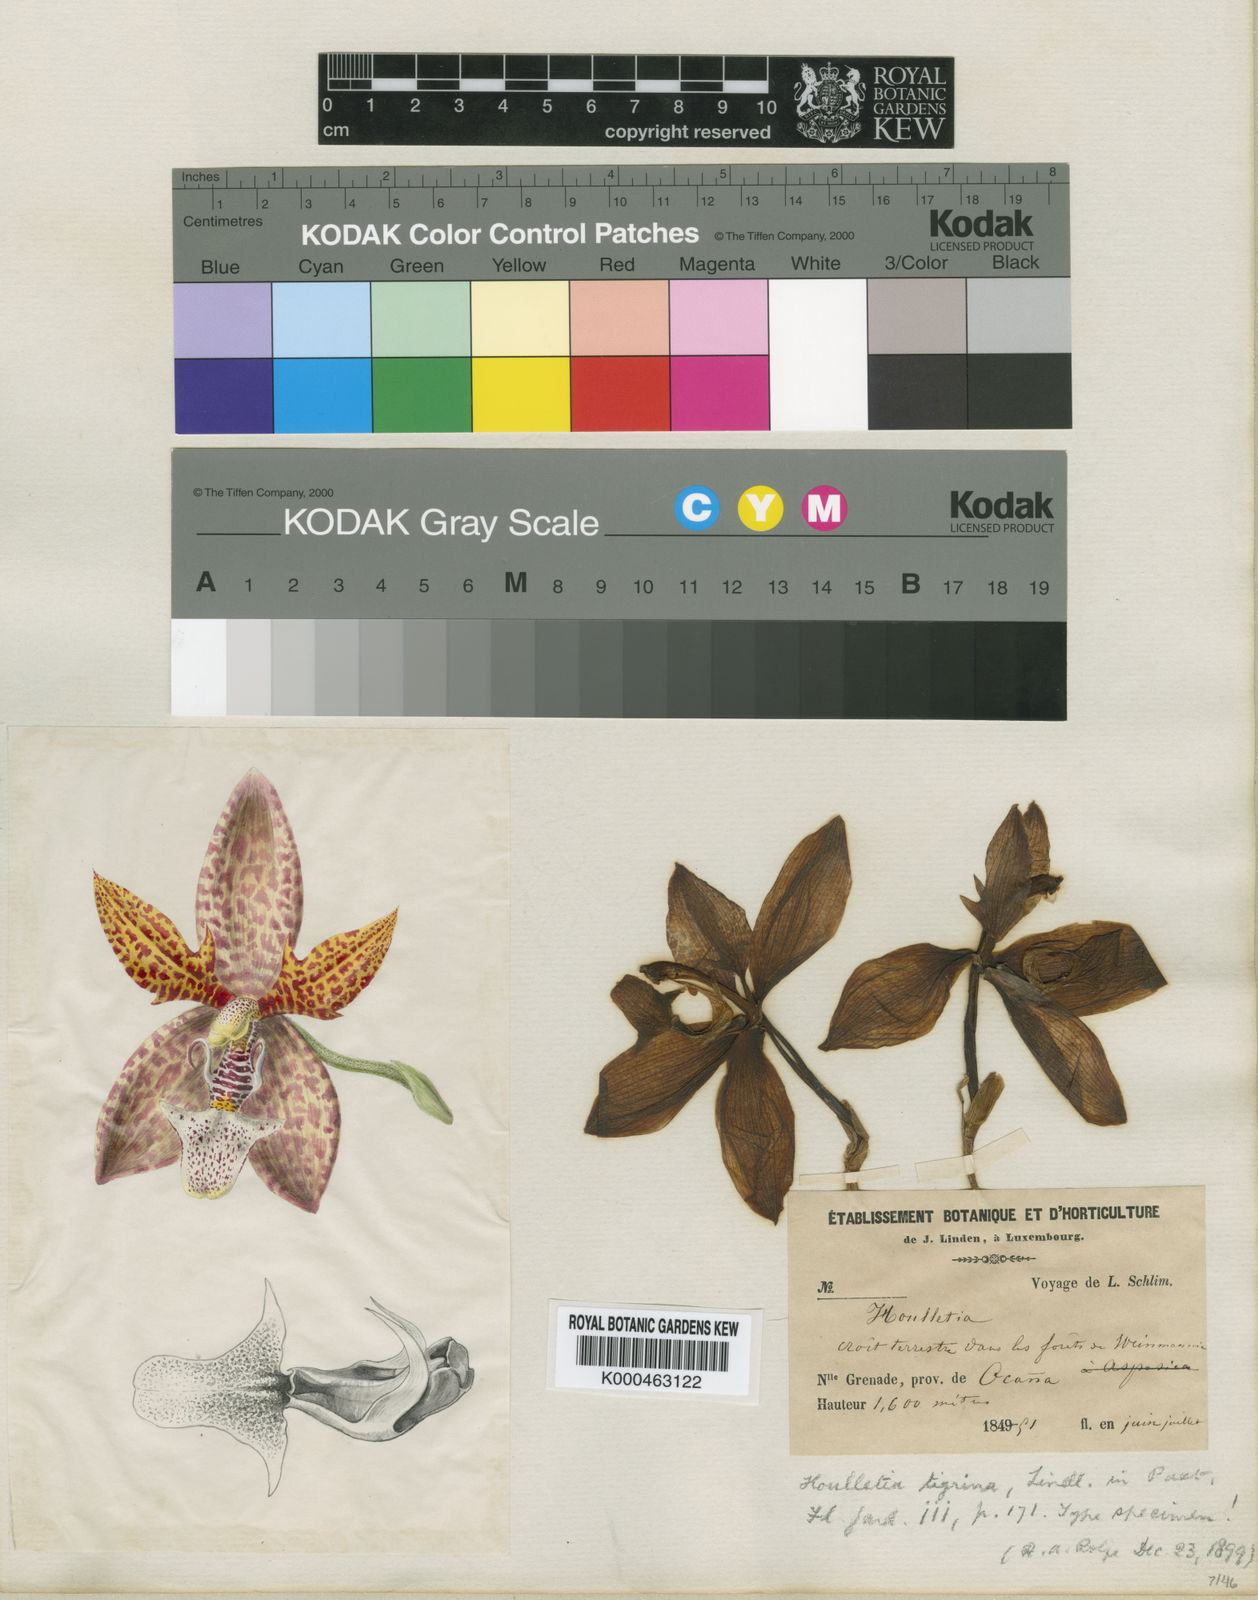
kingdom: Plantae
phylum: Tracheophyta
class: Liliopsida
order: Asparagales
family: Orchidaceae
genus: Houlletia
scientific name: Houlletia tigrina
